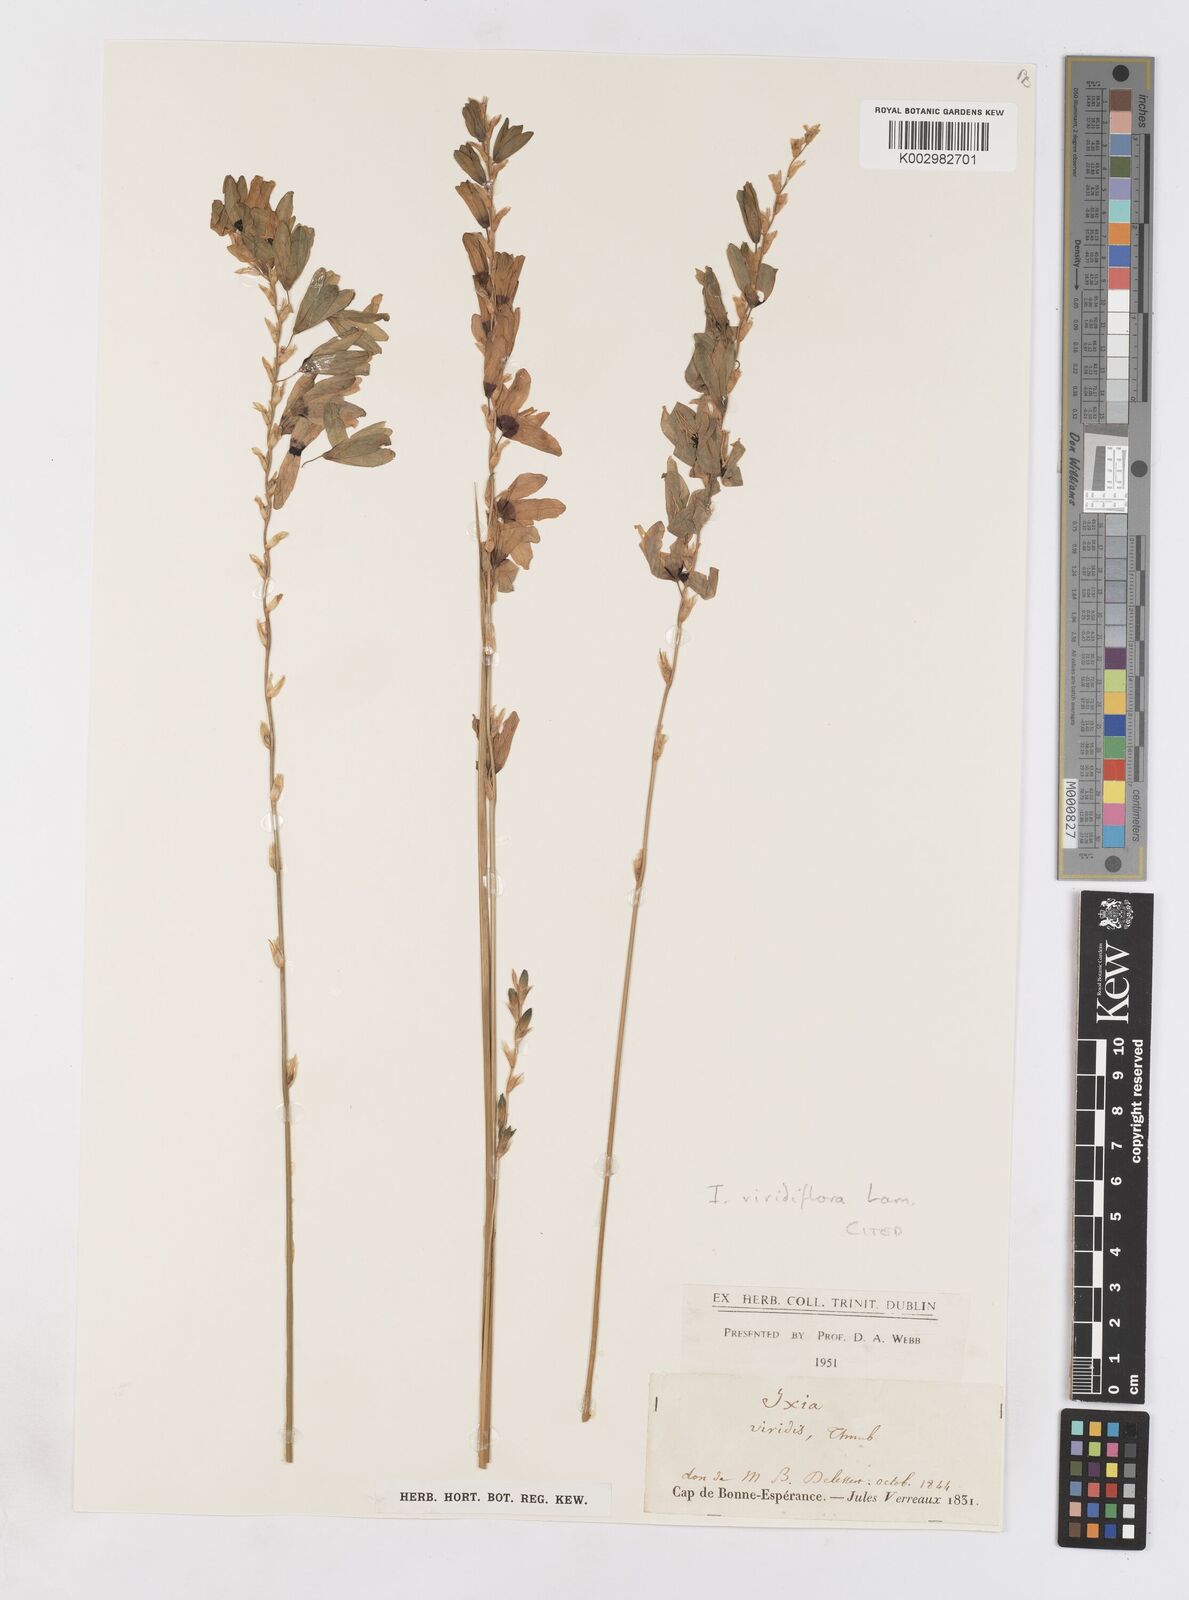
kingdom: Plantae
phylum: Tracheophyta
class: Liliopsida
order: Asparagales
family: Iridaceae
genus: Ixia
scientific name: Ixia viridiflora
